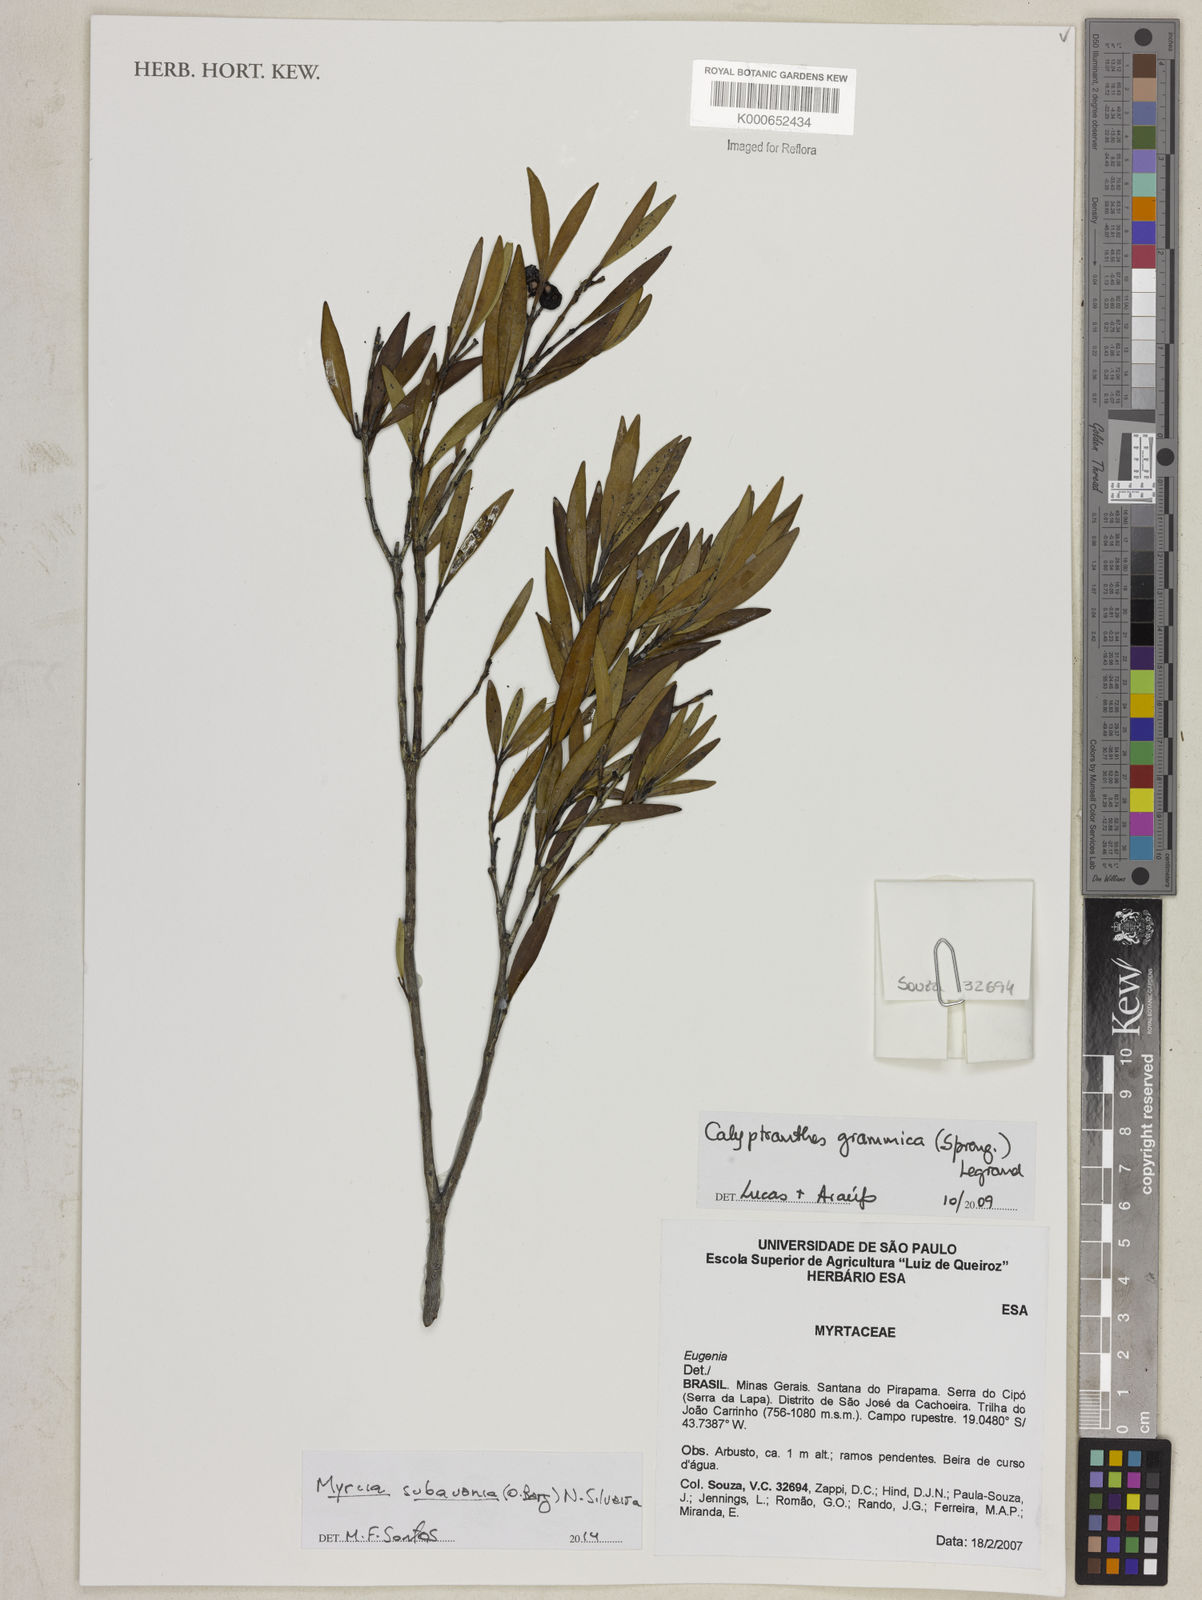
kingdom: Plantae
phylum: Tracheophyta
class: Magnoliopsida
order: Myrtales
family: Myrtaceae
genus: Myrcia
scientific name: Myrcia subavenia
